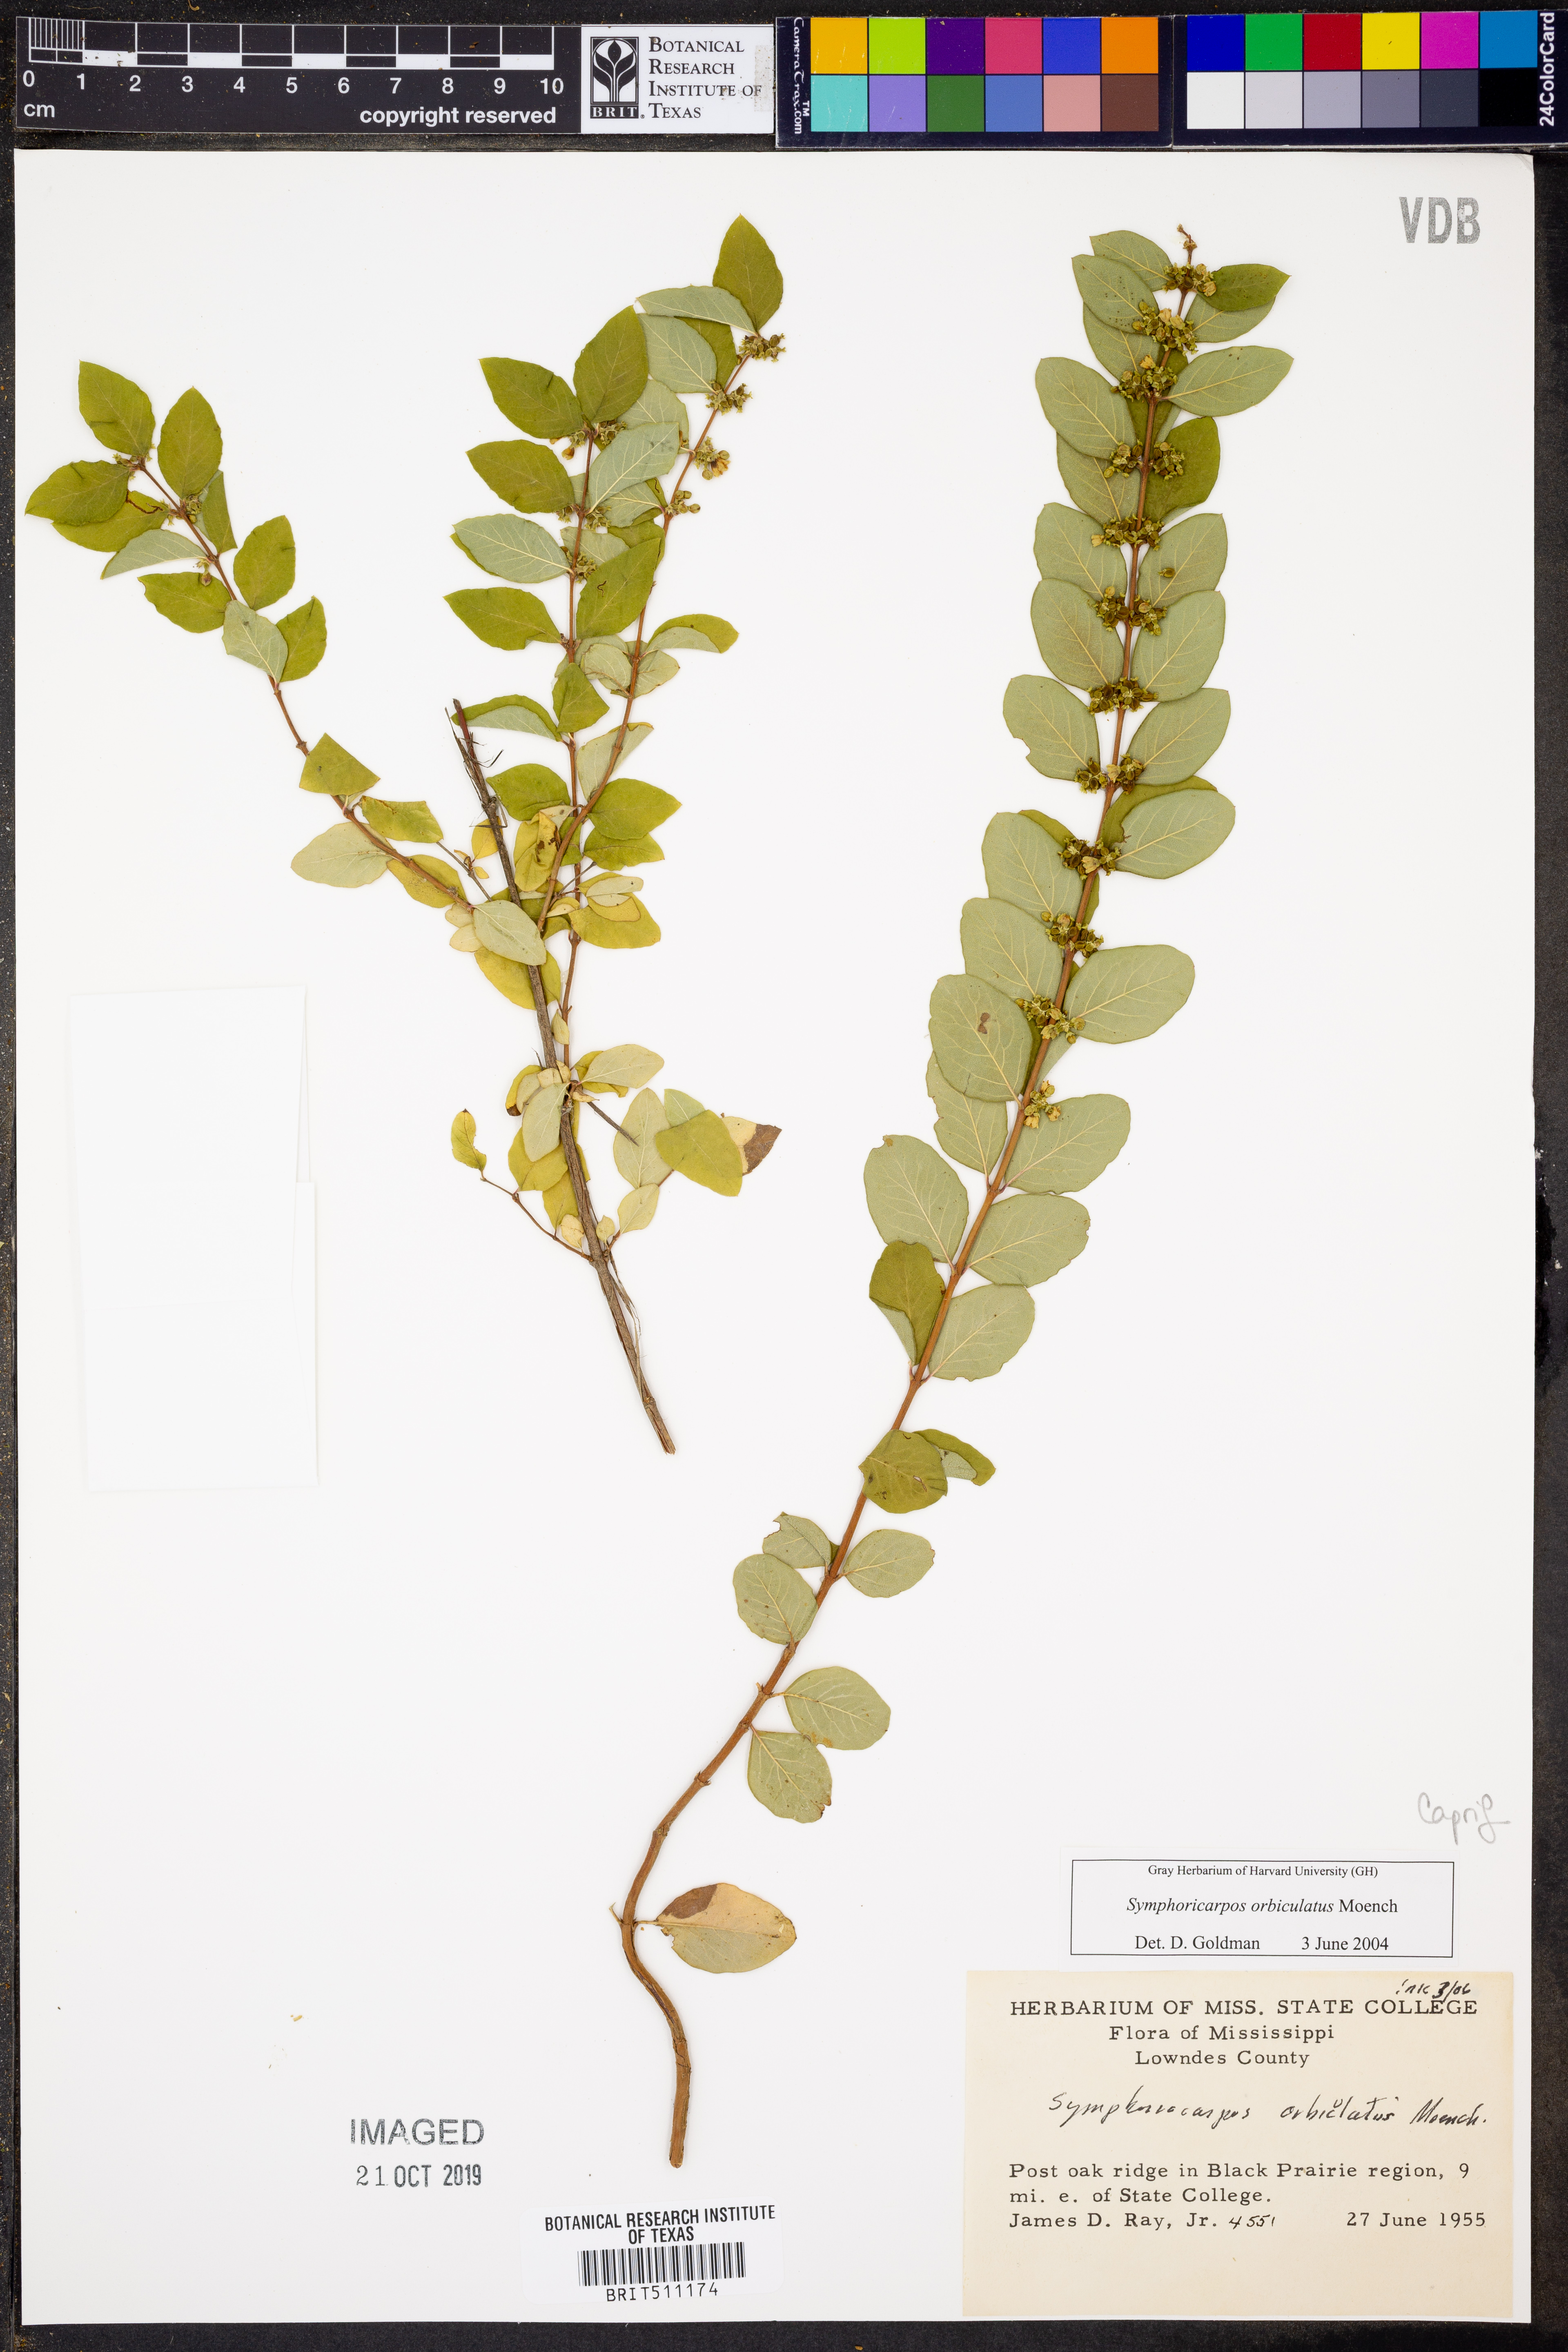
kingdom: Plantae
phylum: Tracheophyta
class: Magnoliopsida
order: Dipsacales
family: Caprifoliaceae
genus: Symphoricarpos
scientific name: Symphoricarpos orbiculatus
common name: Coralberry
